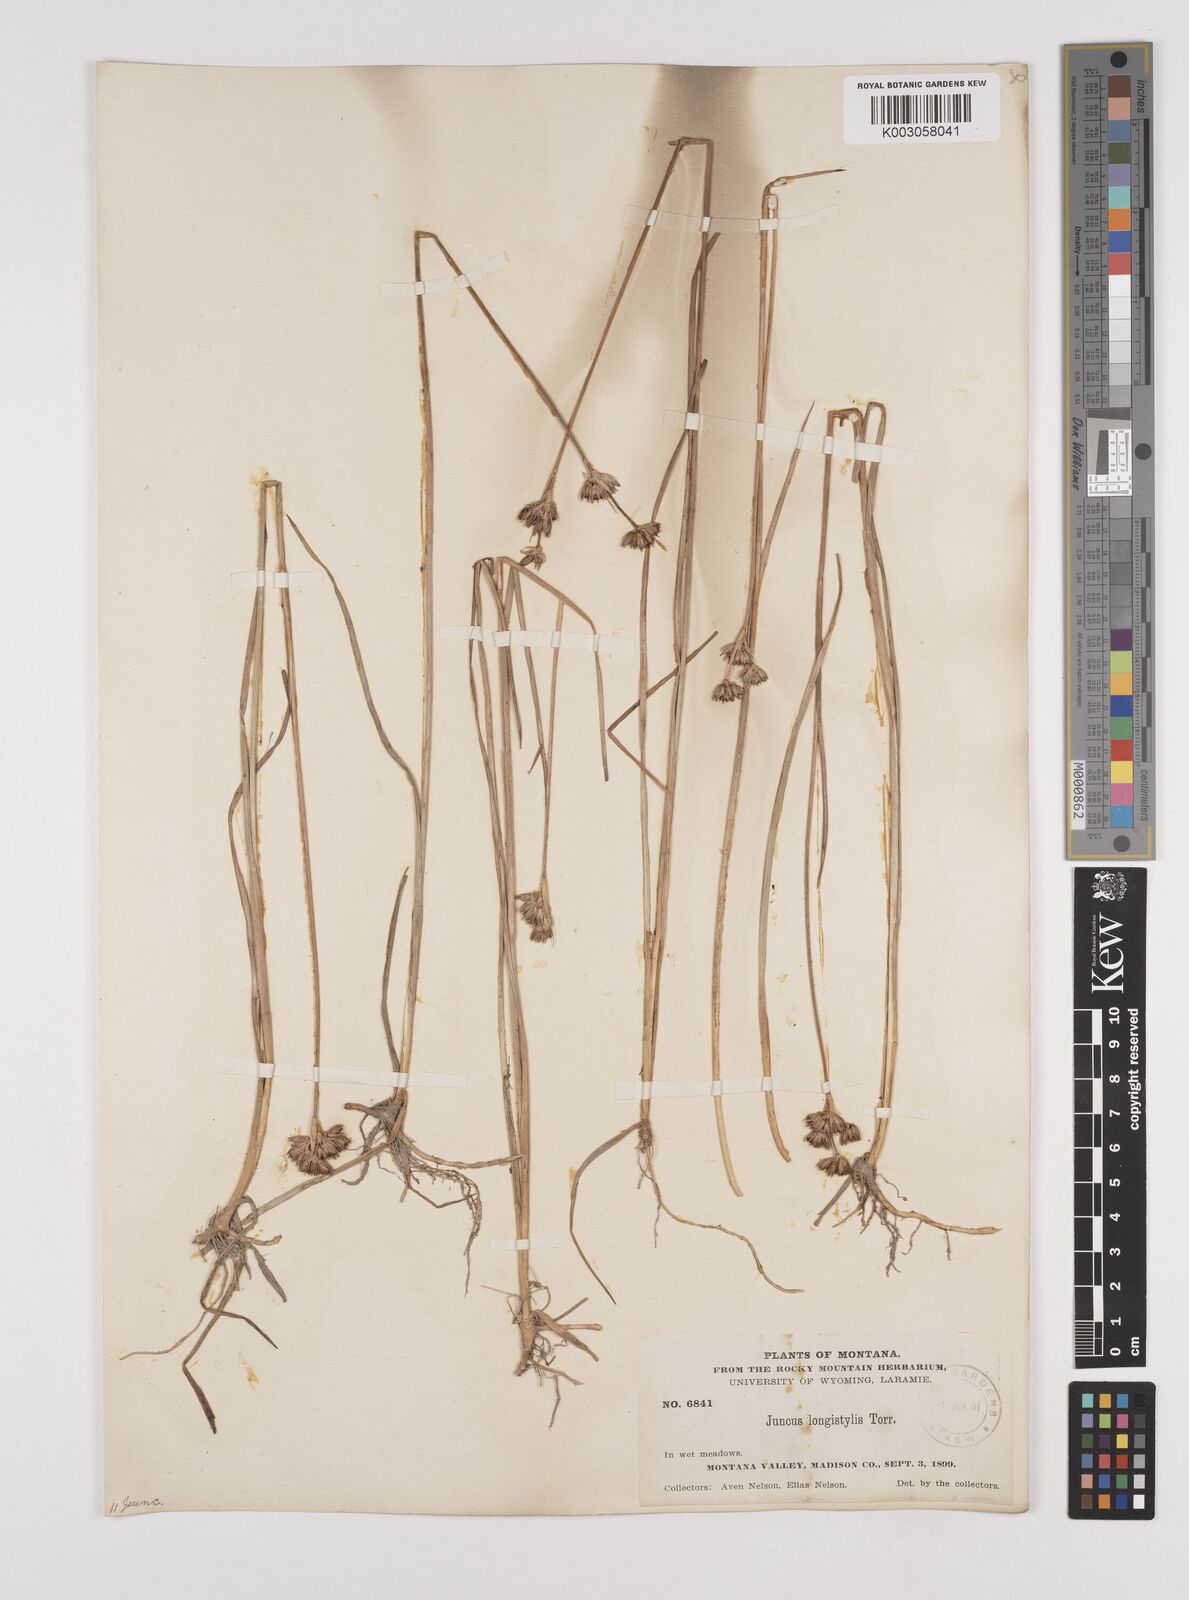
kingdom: Plantae
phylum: Tracheophyta
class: Liliopsida
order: Poales
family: Juncaceae
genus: Juncus
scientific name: Juncus longistylis
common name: Long-style rush
